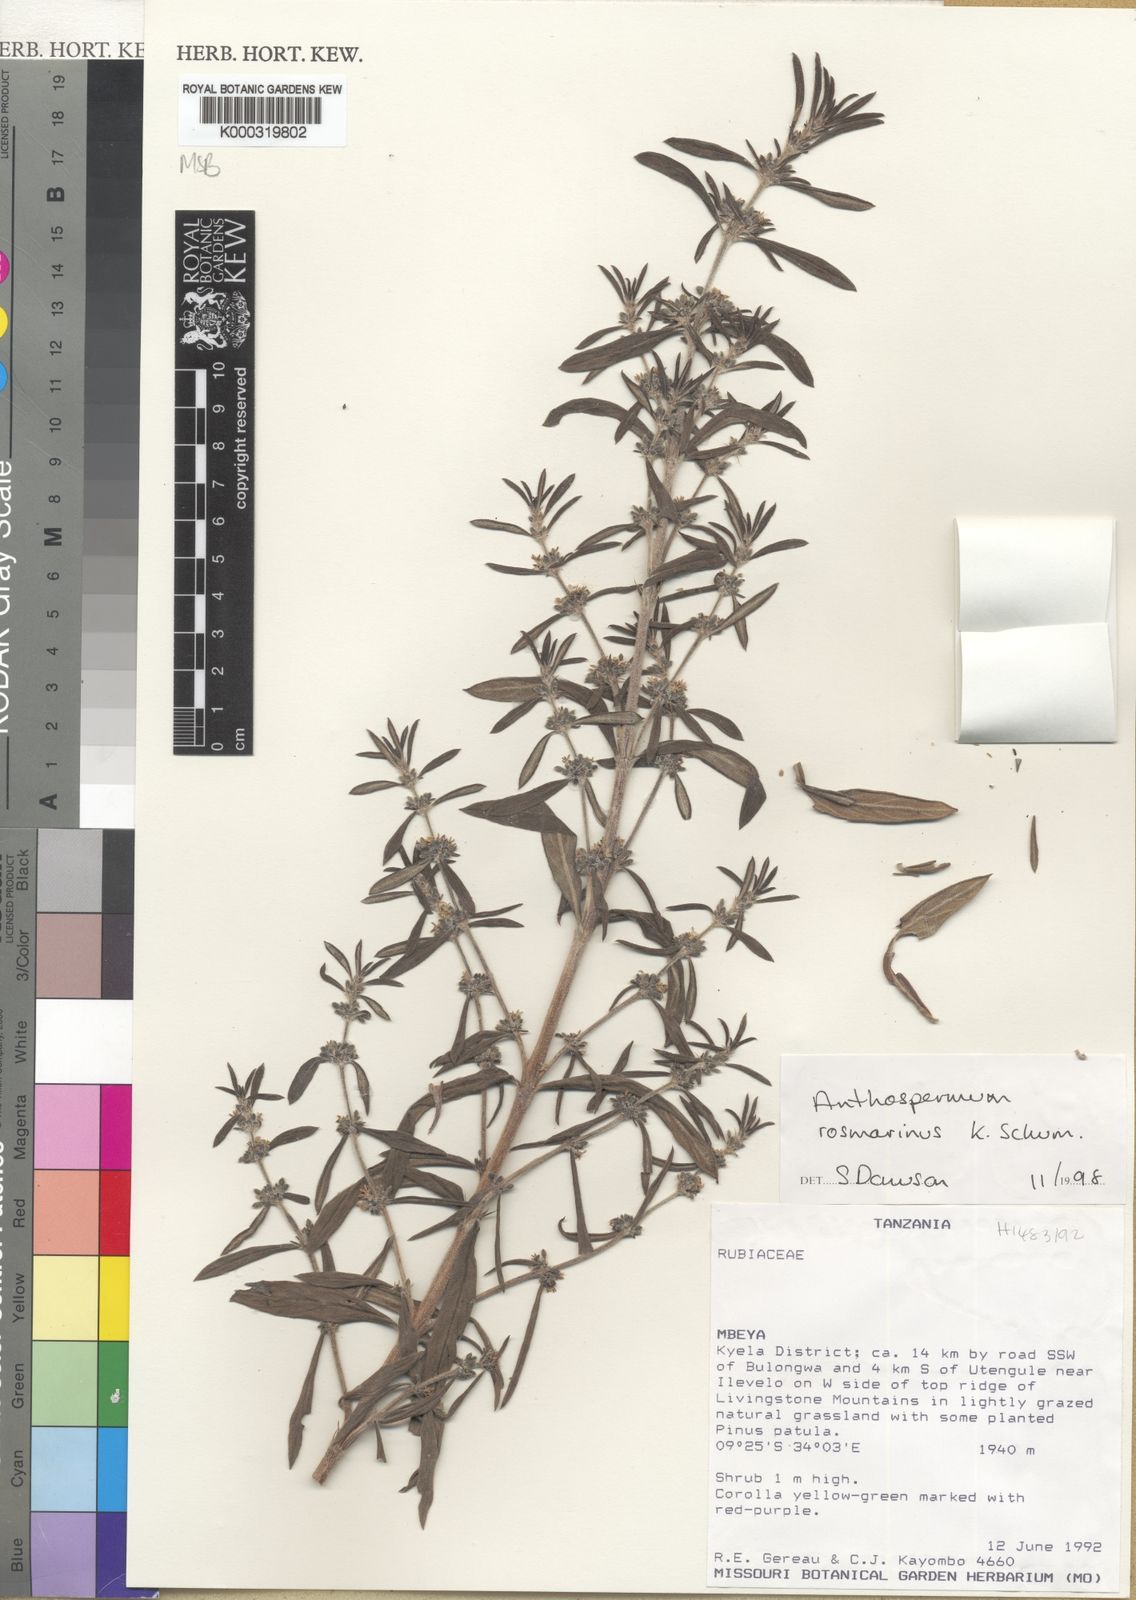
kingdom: Plantae
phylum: Tracheophyta
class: Magnoliopsida
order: Gentianales
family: Rubiaceae
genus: Anthospermum
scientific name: Anthospermum rosmarinus
